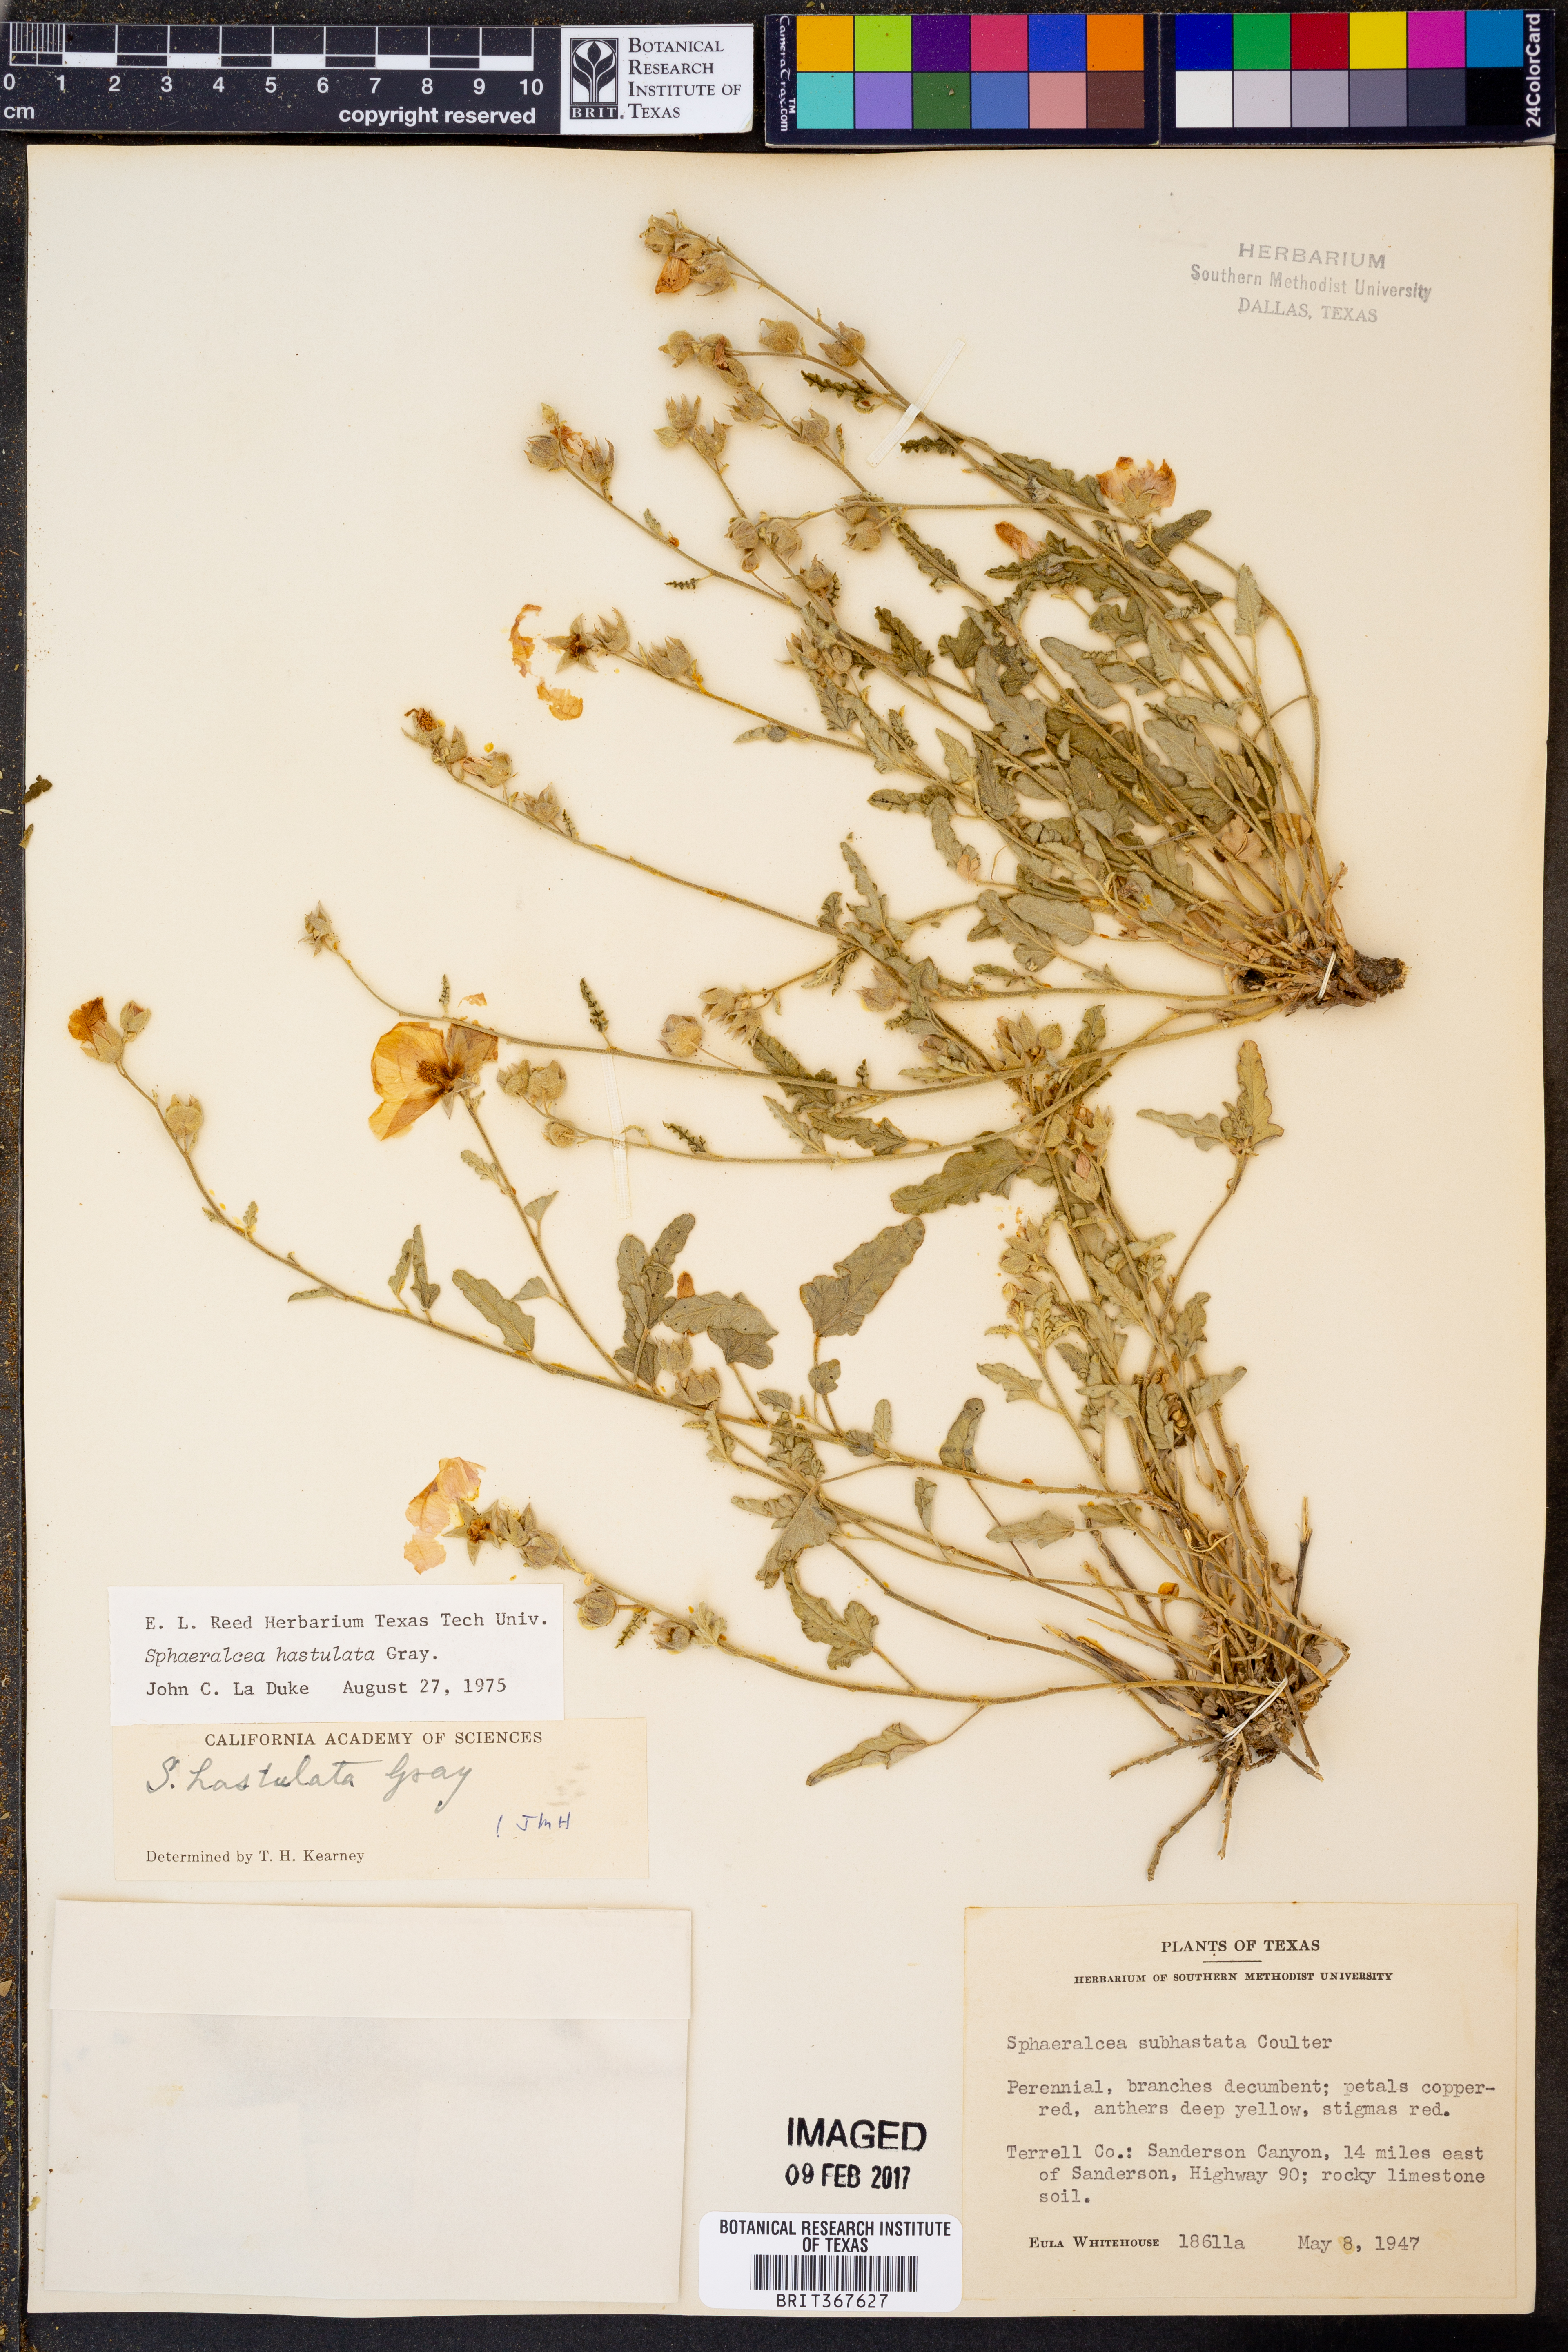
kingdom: Plantae
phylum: Tracheophyta
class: Magnoliopsida
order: Malvales
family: Malvaceae
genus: Sphaeralcea
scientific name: Sphaeralcea hastulata
